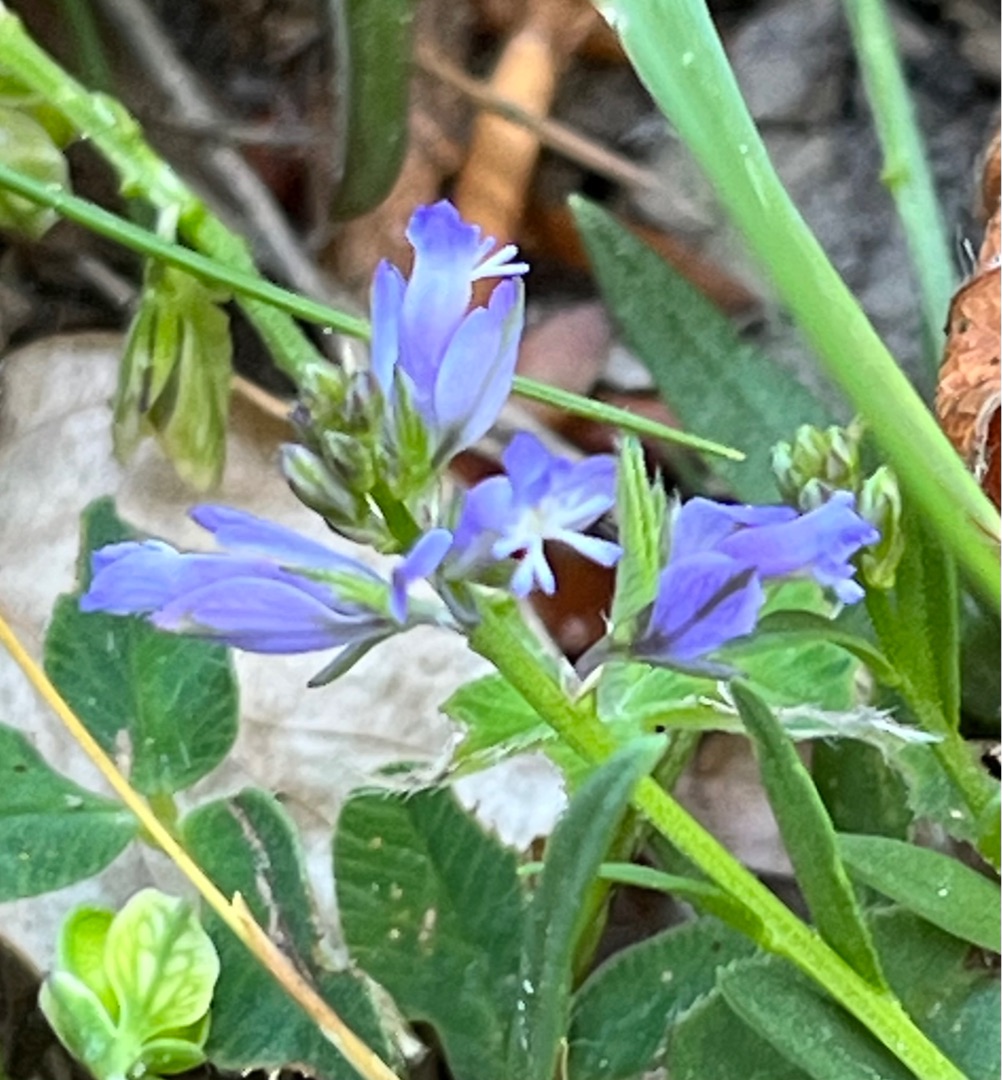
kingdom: Plantae
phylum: Tracheophyta
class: Magnoliopsida
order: Fabales
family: Polygalaceae
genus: Polygala
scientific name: Polygala vulgaris
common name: Almindelig mælkeurt
